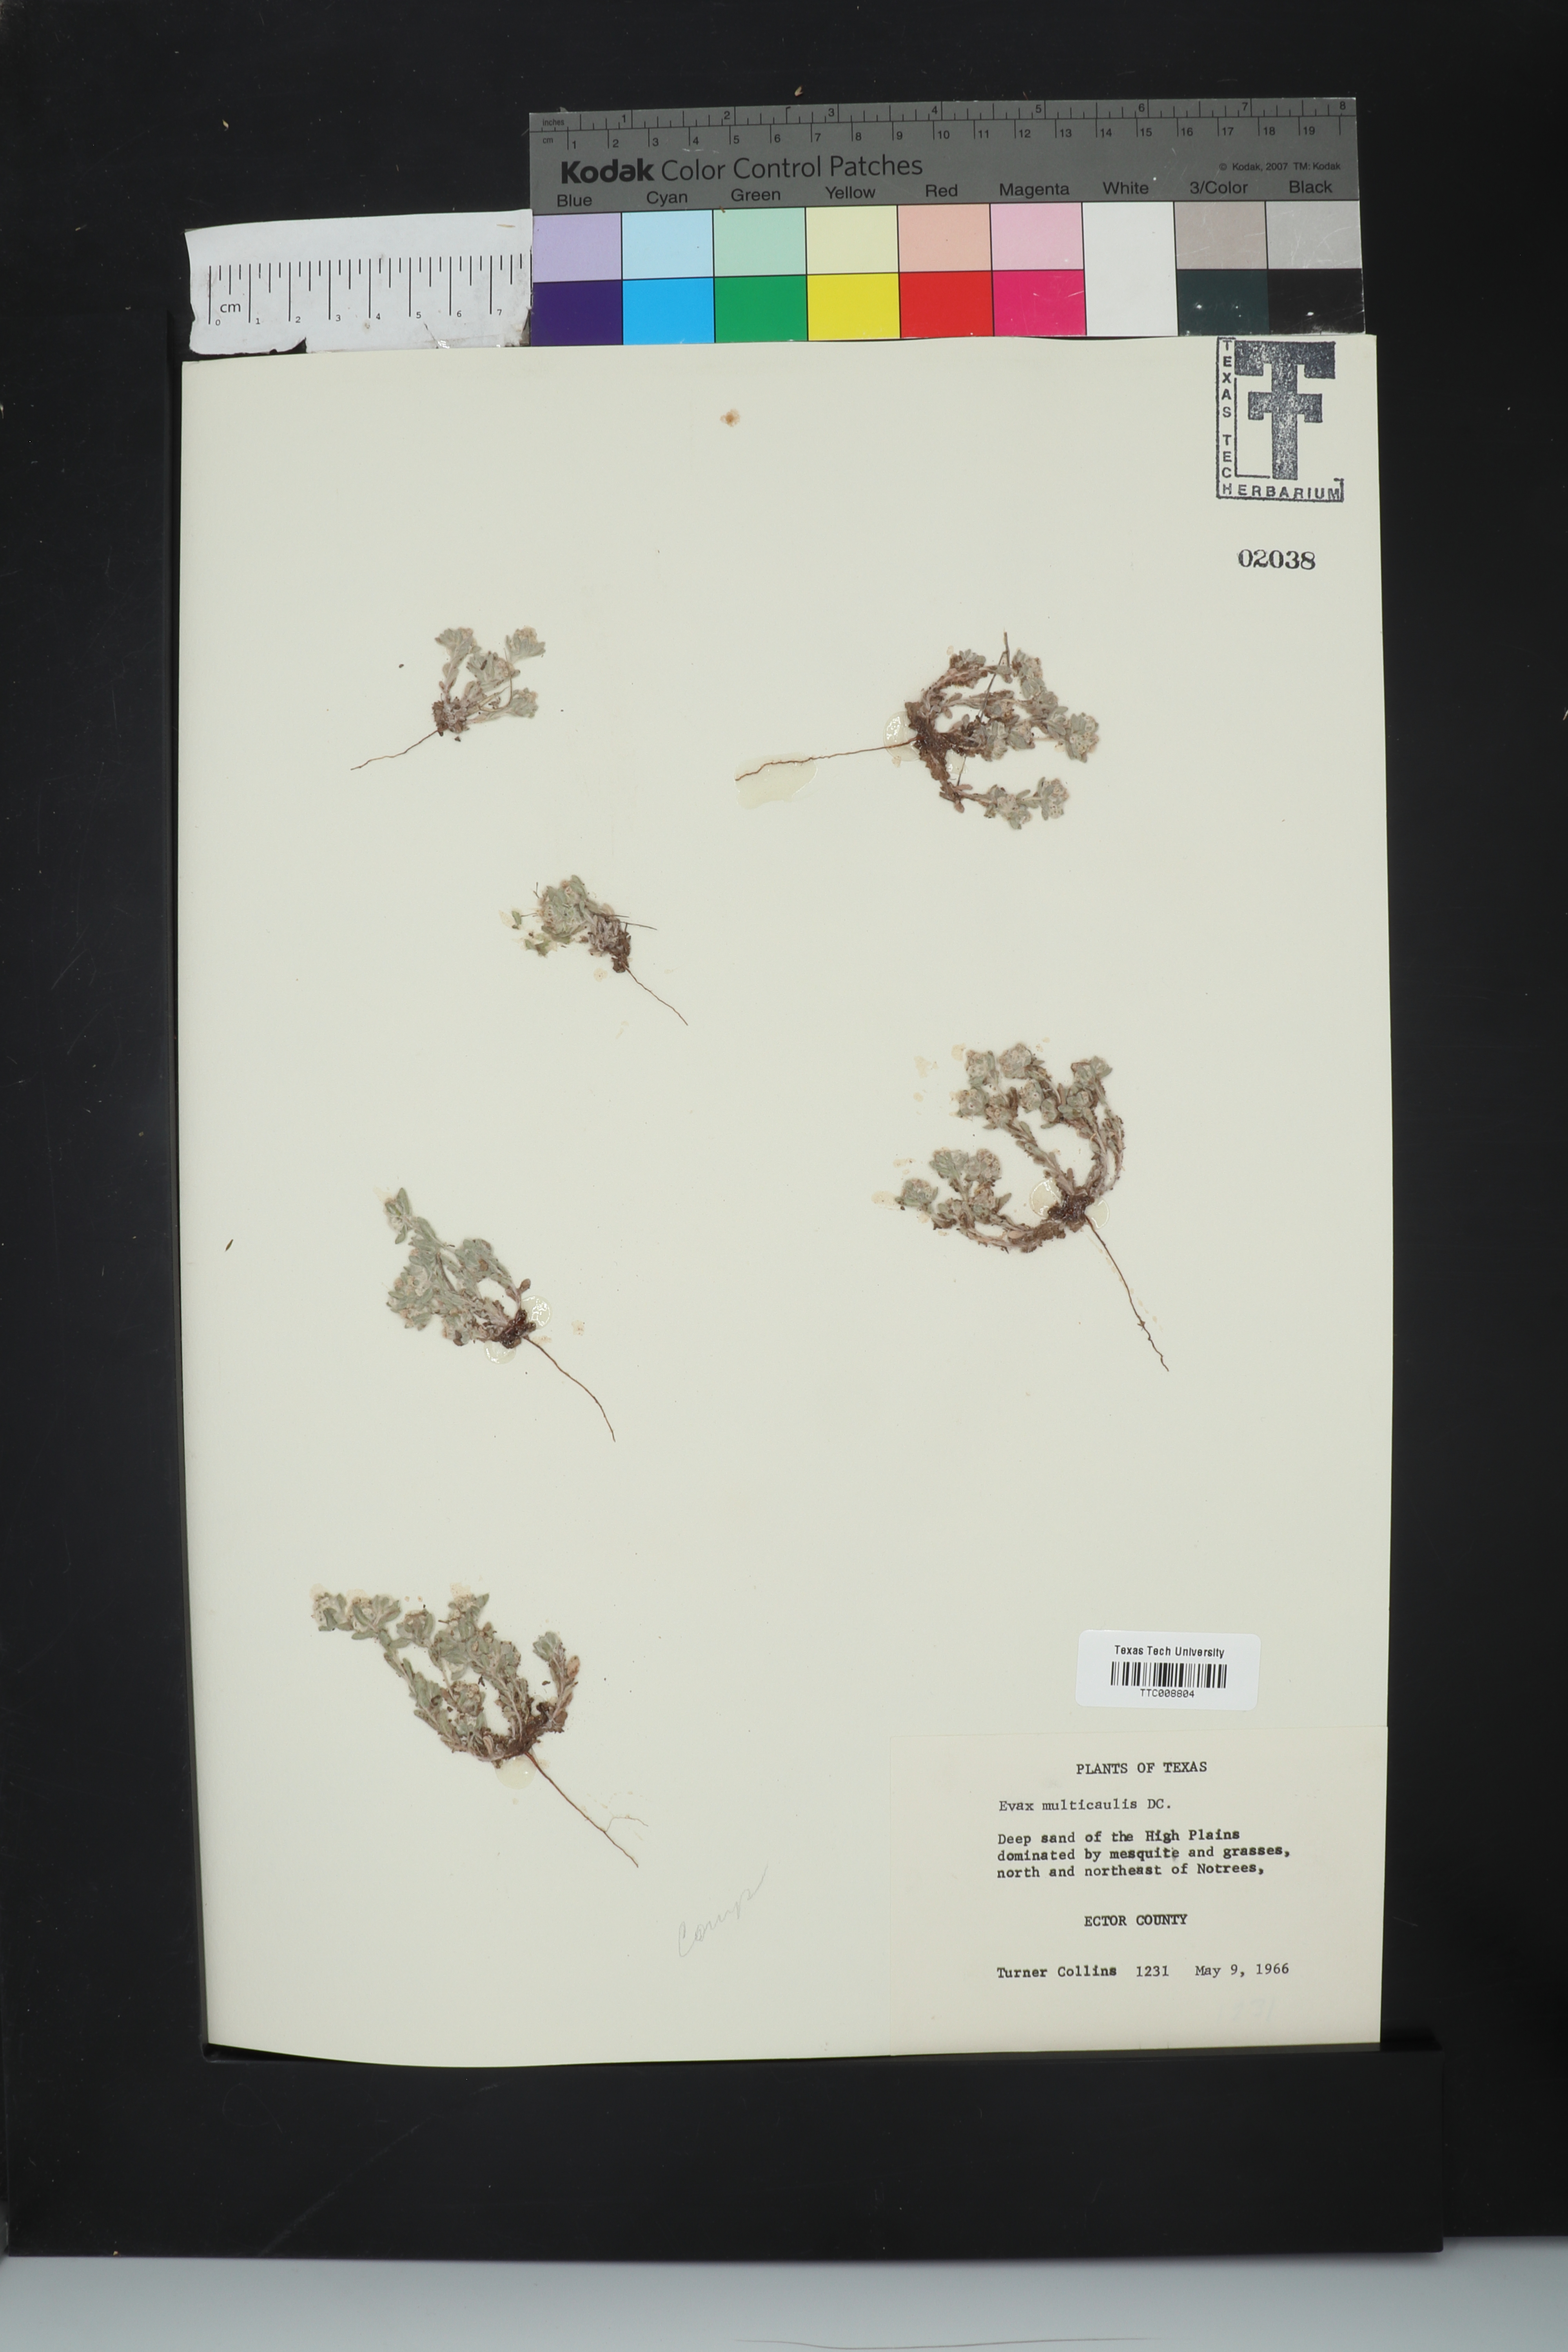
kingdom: Plantae
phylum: Tracheophyta
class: Magnoliopsida
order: Asterales
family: Asteraceae
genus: Diaperia
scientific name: Diaperia verna
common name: Many-stem rabbit-tobacco
